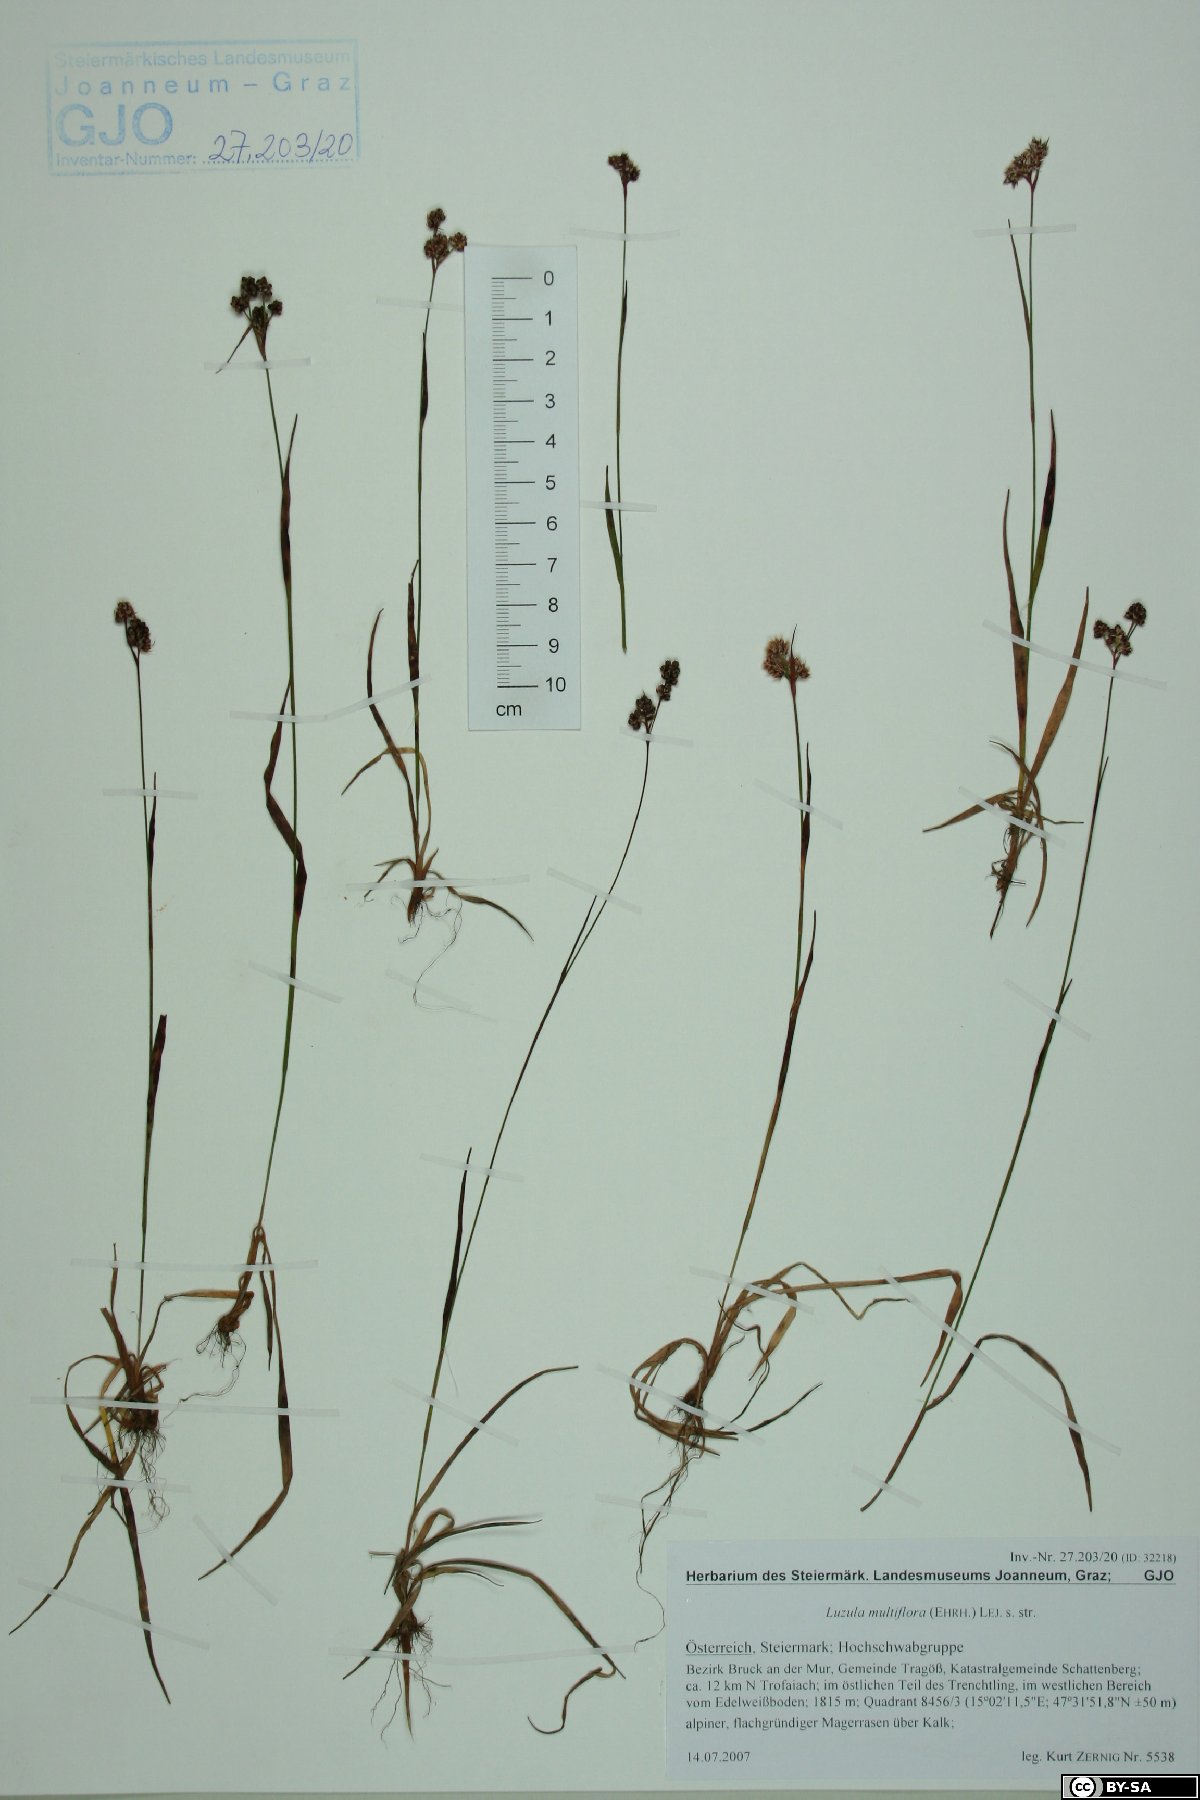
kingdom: Plantae
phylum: Tracheophyta
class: Liliopsida
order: Poales
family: Juncaceae
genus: Luzula
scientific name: Luzula multiflora
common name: Heath wood-rush
